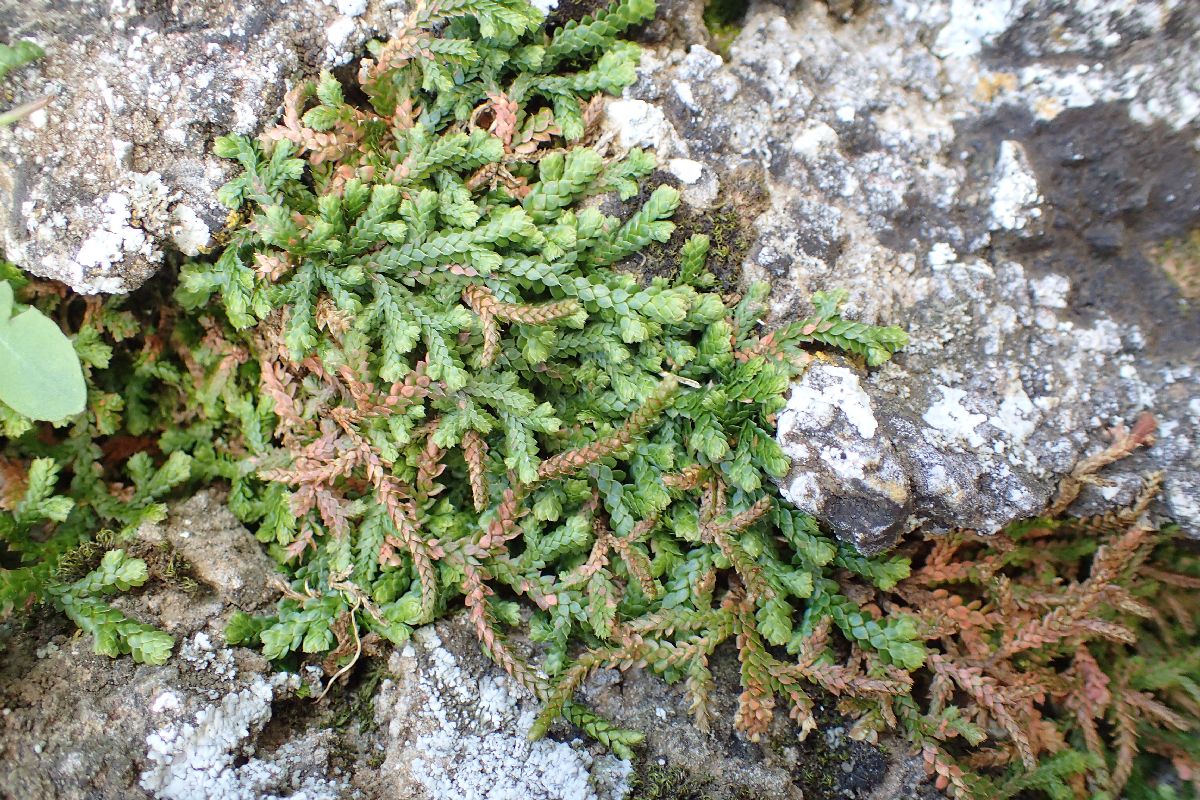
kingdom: Plantae
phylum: Tracheophyta
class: Lycopodiopsida
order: Selaginellales
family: Selaginellaceae
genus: Selaginella
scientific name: Selaginella denticulata
